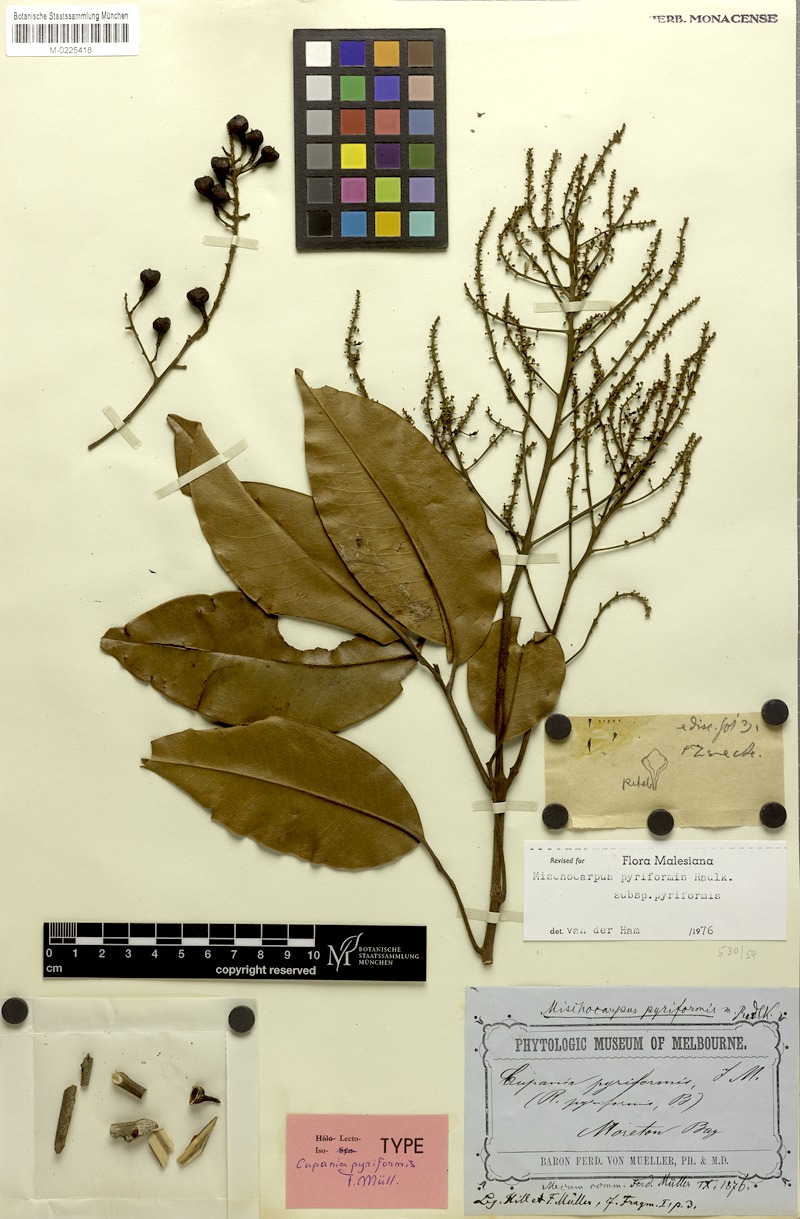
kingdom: Plantae
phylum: Tracheophyta
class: Magnoliopsida
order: Sapindales
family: Sapindaceae
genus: Mischocarpus
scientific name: Mischocarpus pyriformis
